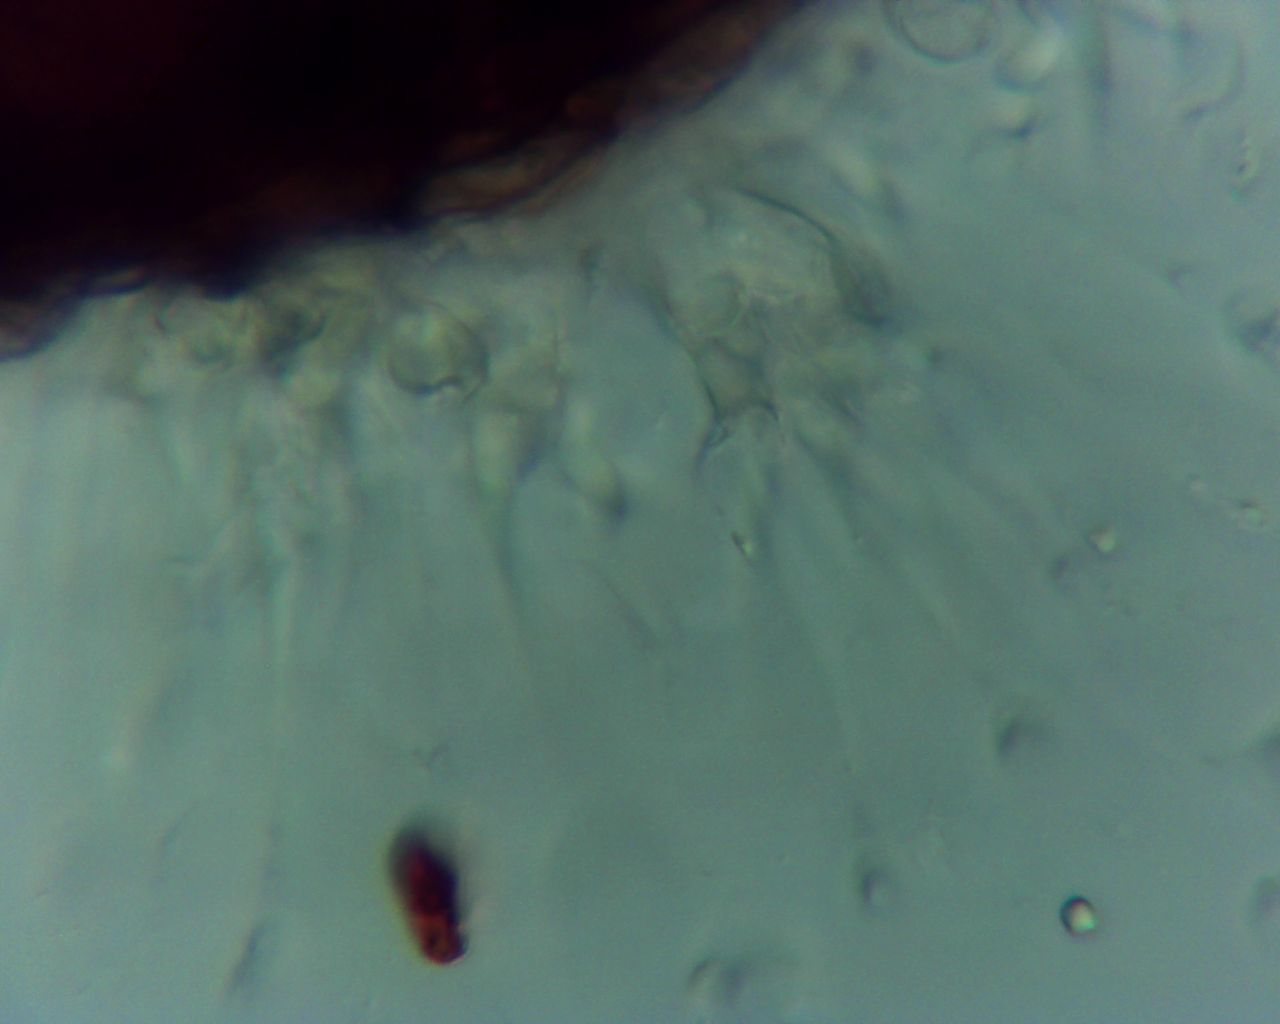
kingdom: Fungi
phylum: Ascomycota
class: Leotiomycetes
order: Helotiales
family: Erysiphaceae
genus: Sawadaea
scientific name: Sawadaea
